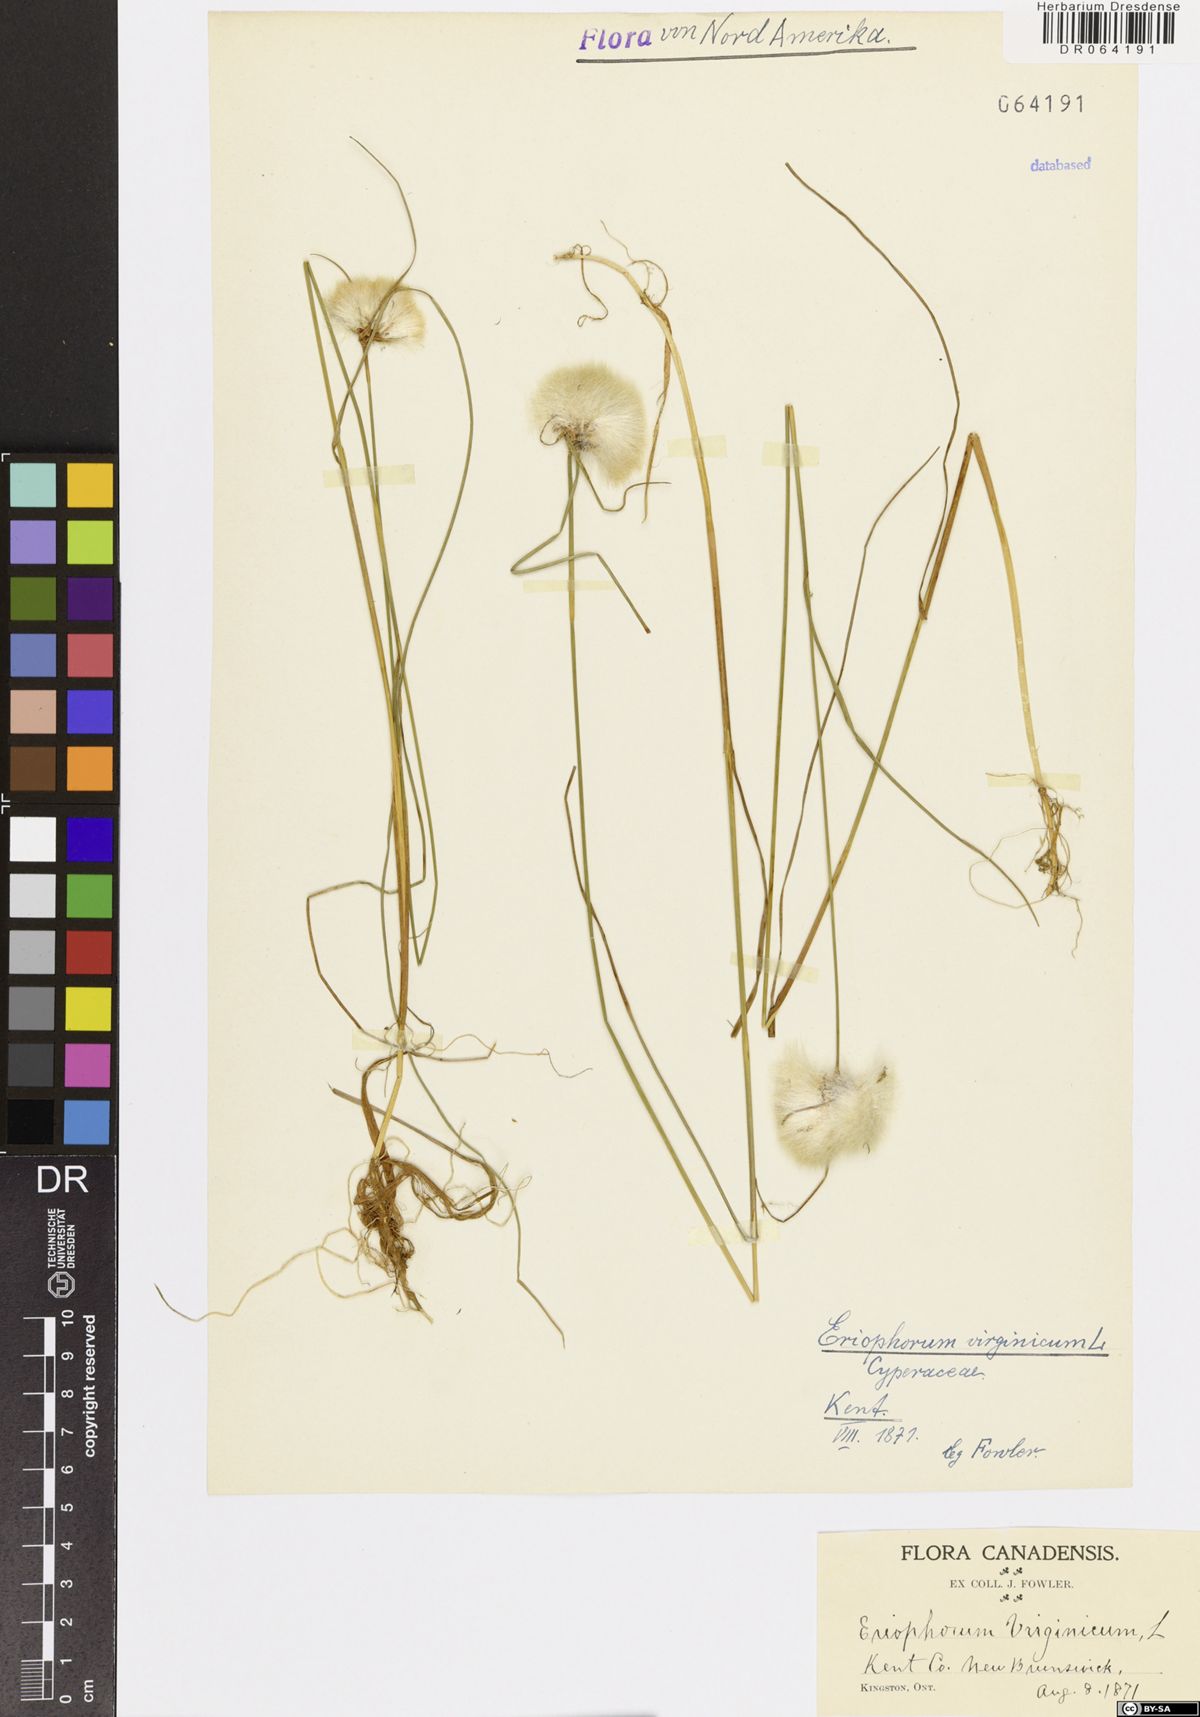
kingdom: Plantae
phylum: Tracheophyta
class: Liliopsida
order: Poales
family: Cyperaceae
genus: Eriophorum
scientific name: Eriophorum virginicum
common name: Tawny cottongrass
